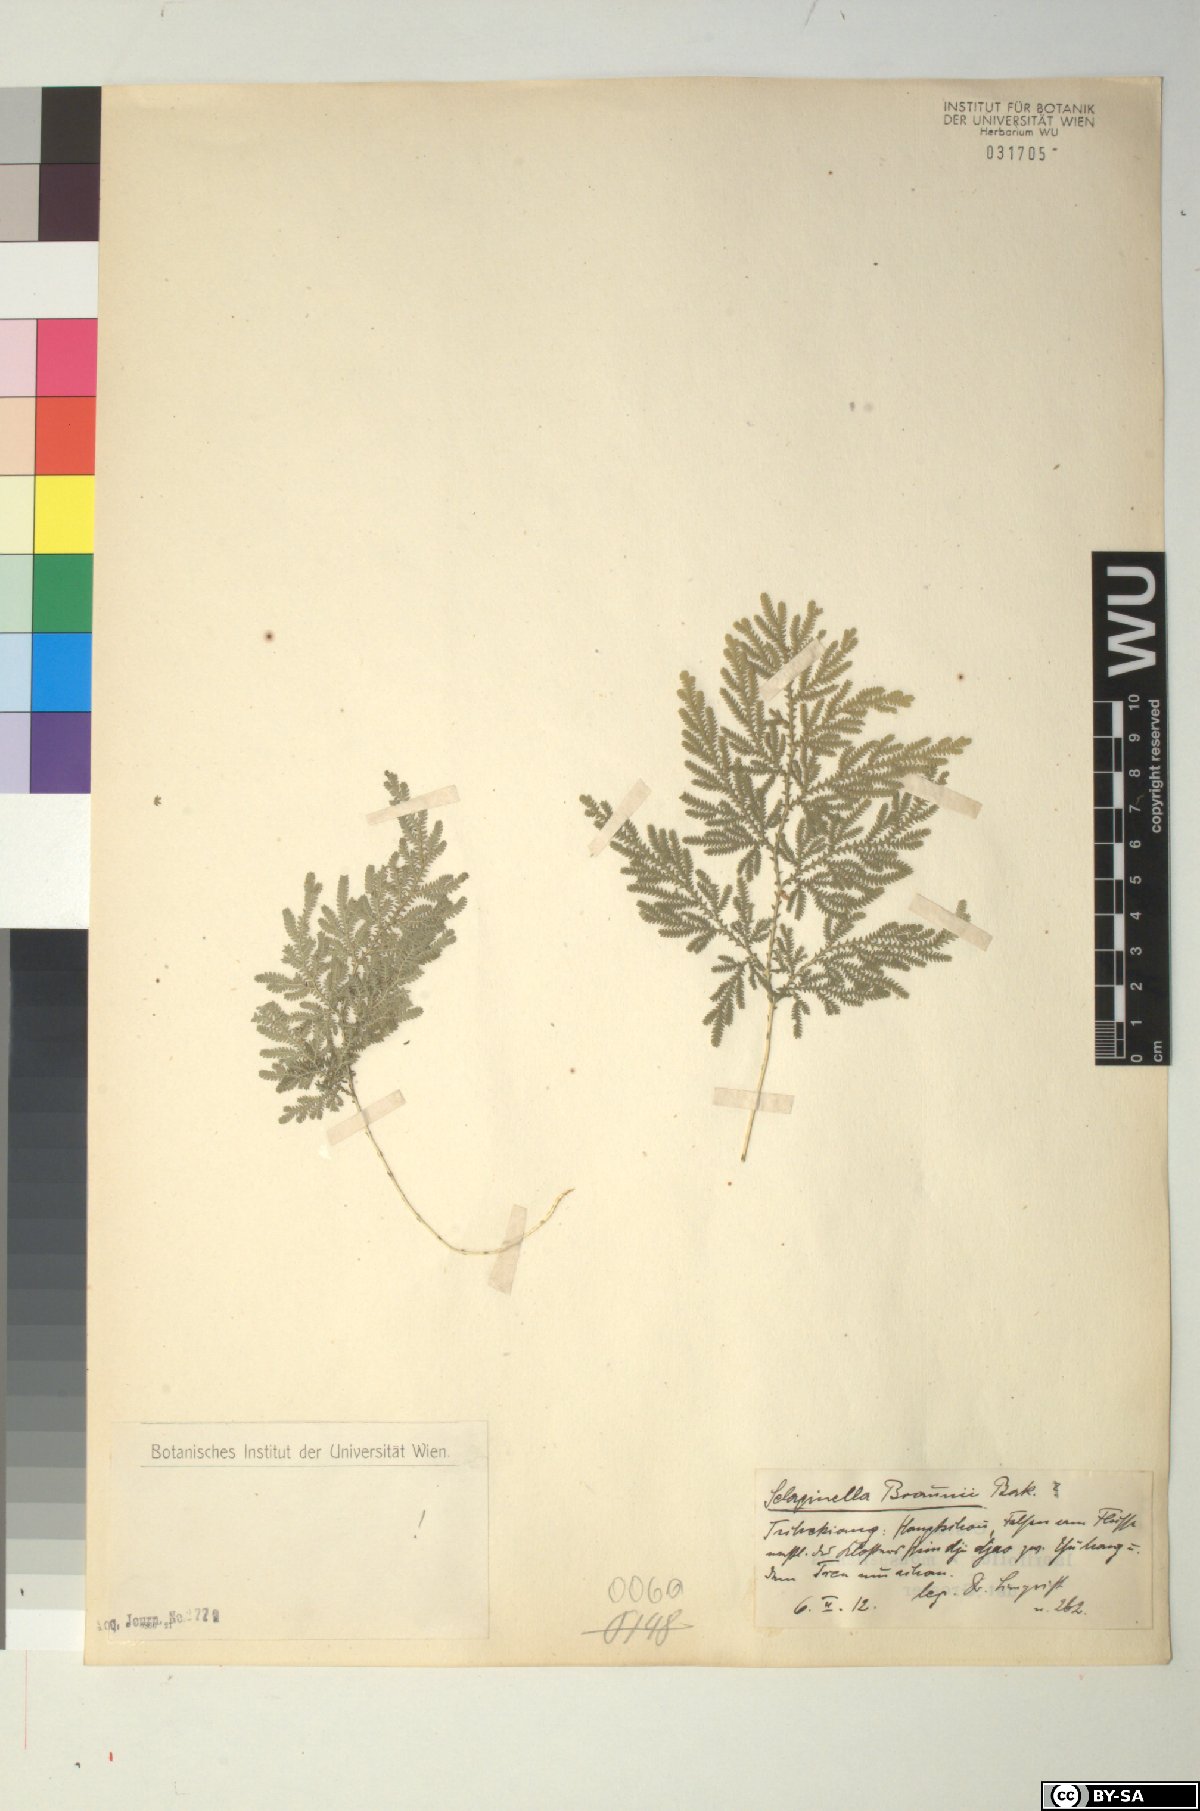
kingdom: Plantae
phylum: Tracheophyta
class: Lycopodiopsida
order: Selaginellales
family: Selaginellaceae
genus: Selaginella
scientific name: Selaginella braunii
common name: Braun's spikemoss
